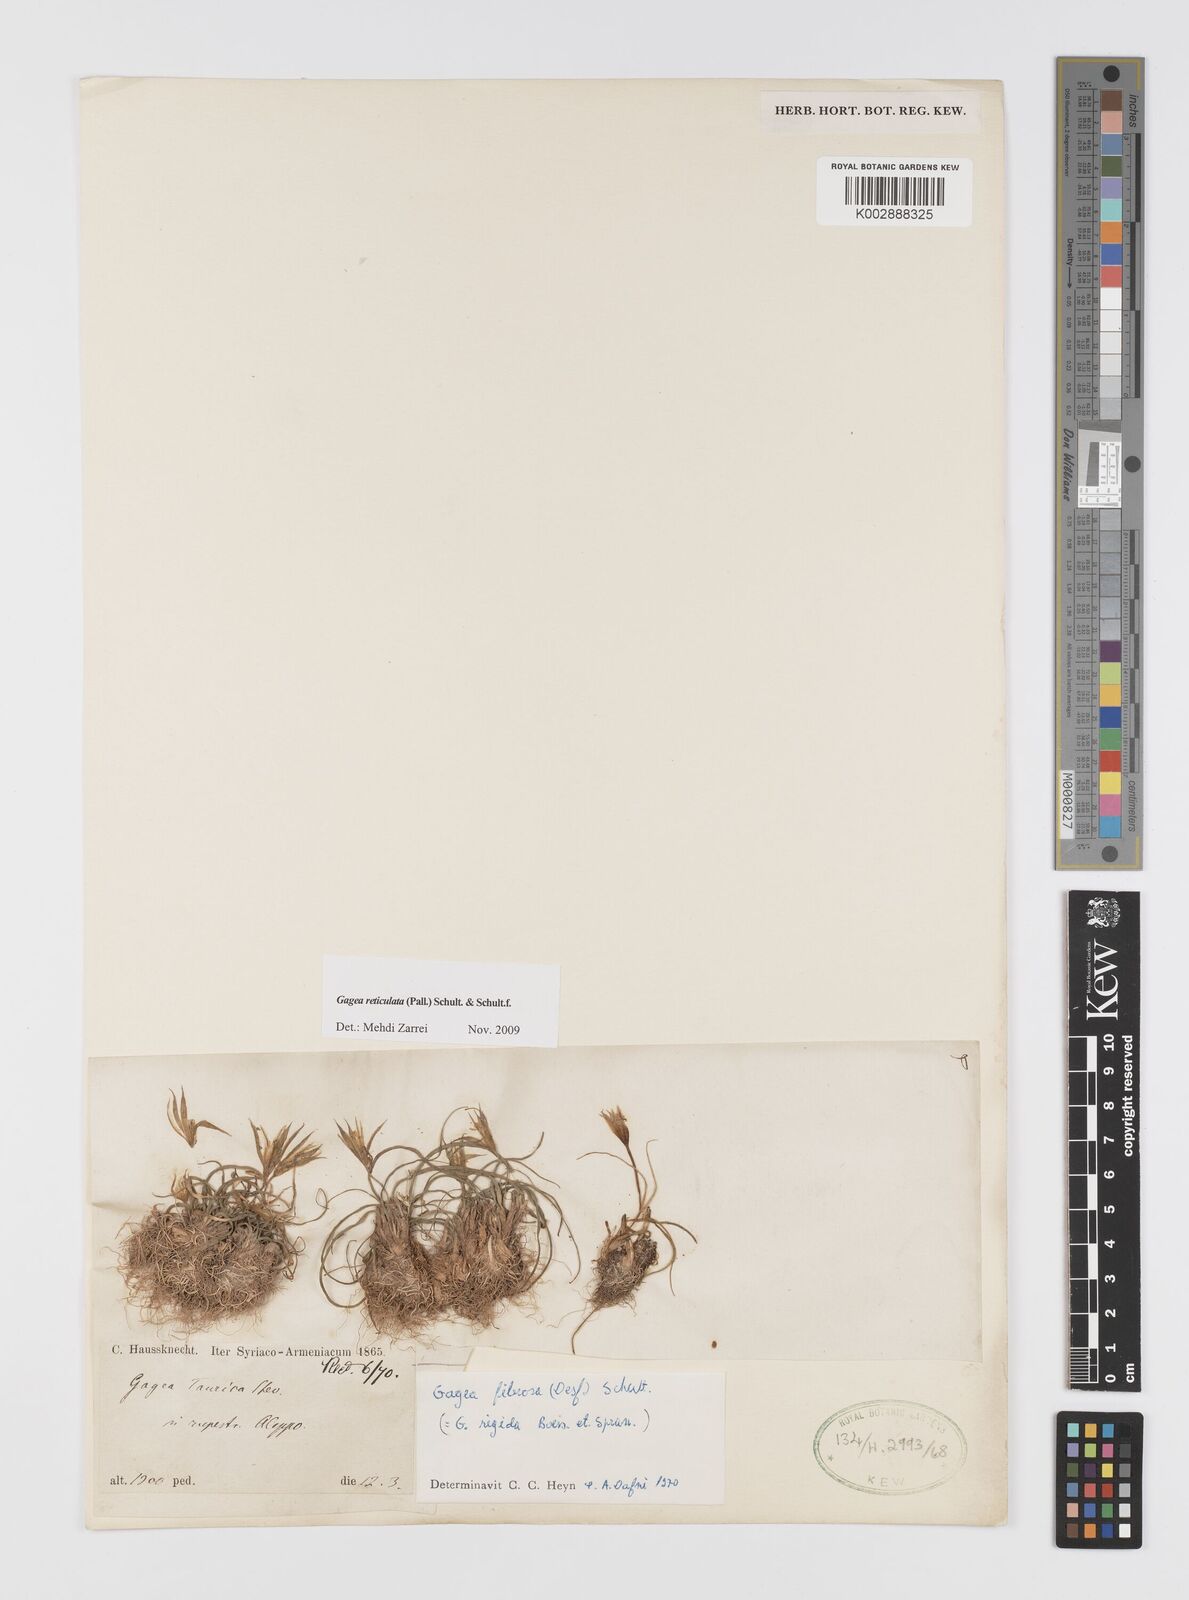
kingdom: Plantae
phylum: Tracheophyta
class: Liliopsida
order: Liliales
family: Liliaceae
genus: Gagea
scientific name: Gagea fibrosa
